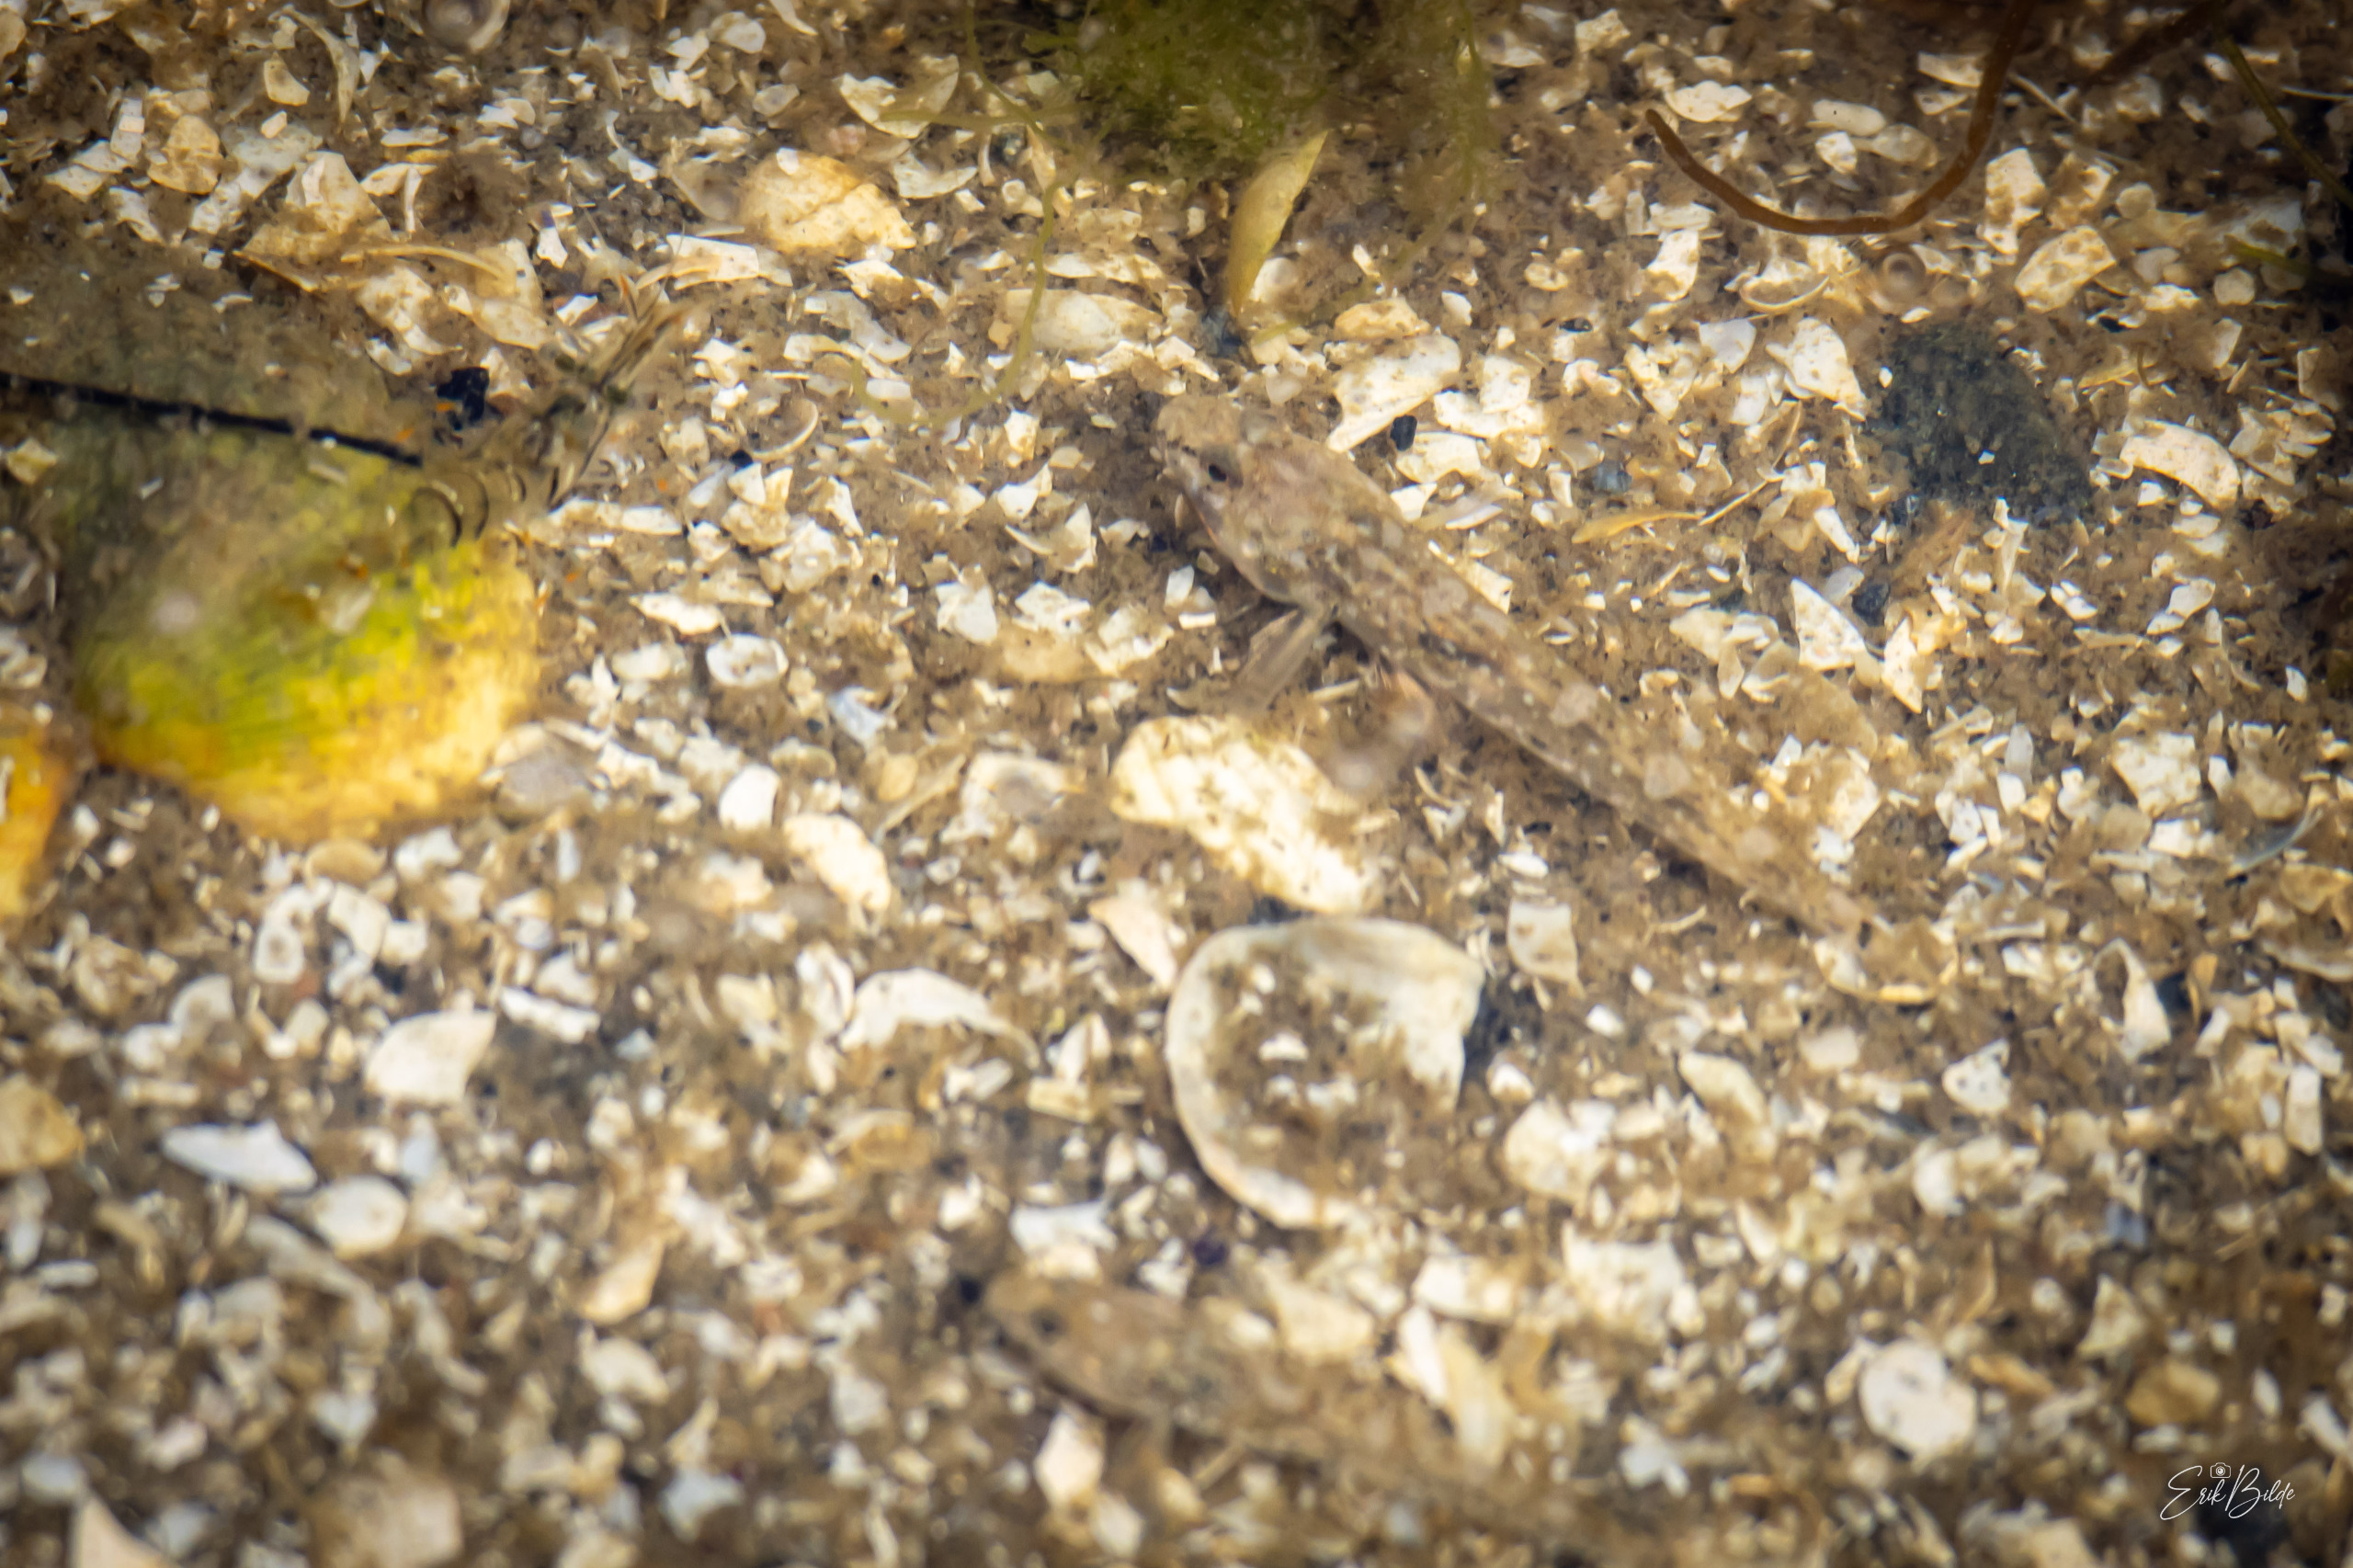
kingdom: Animalia
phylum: Chordata
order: Perciformes
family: Gobiidae
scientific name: Gobiidae
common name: Kutlingefamilien
